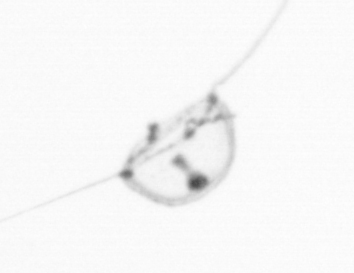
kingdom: Animalia
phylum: Cnidaria
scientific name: Cnidaria
